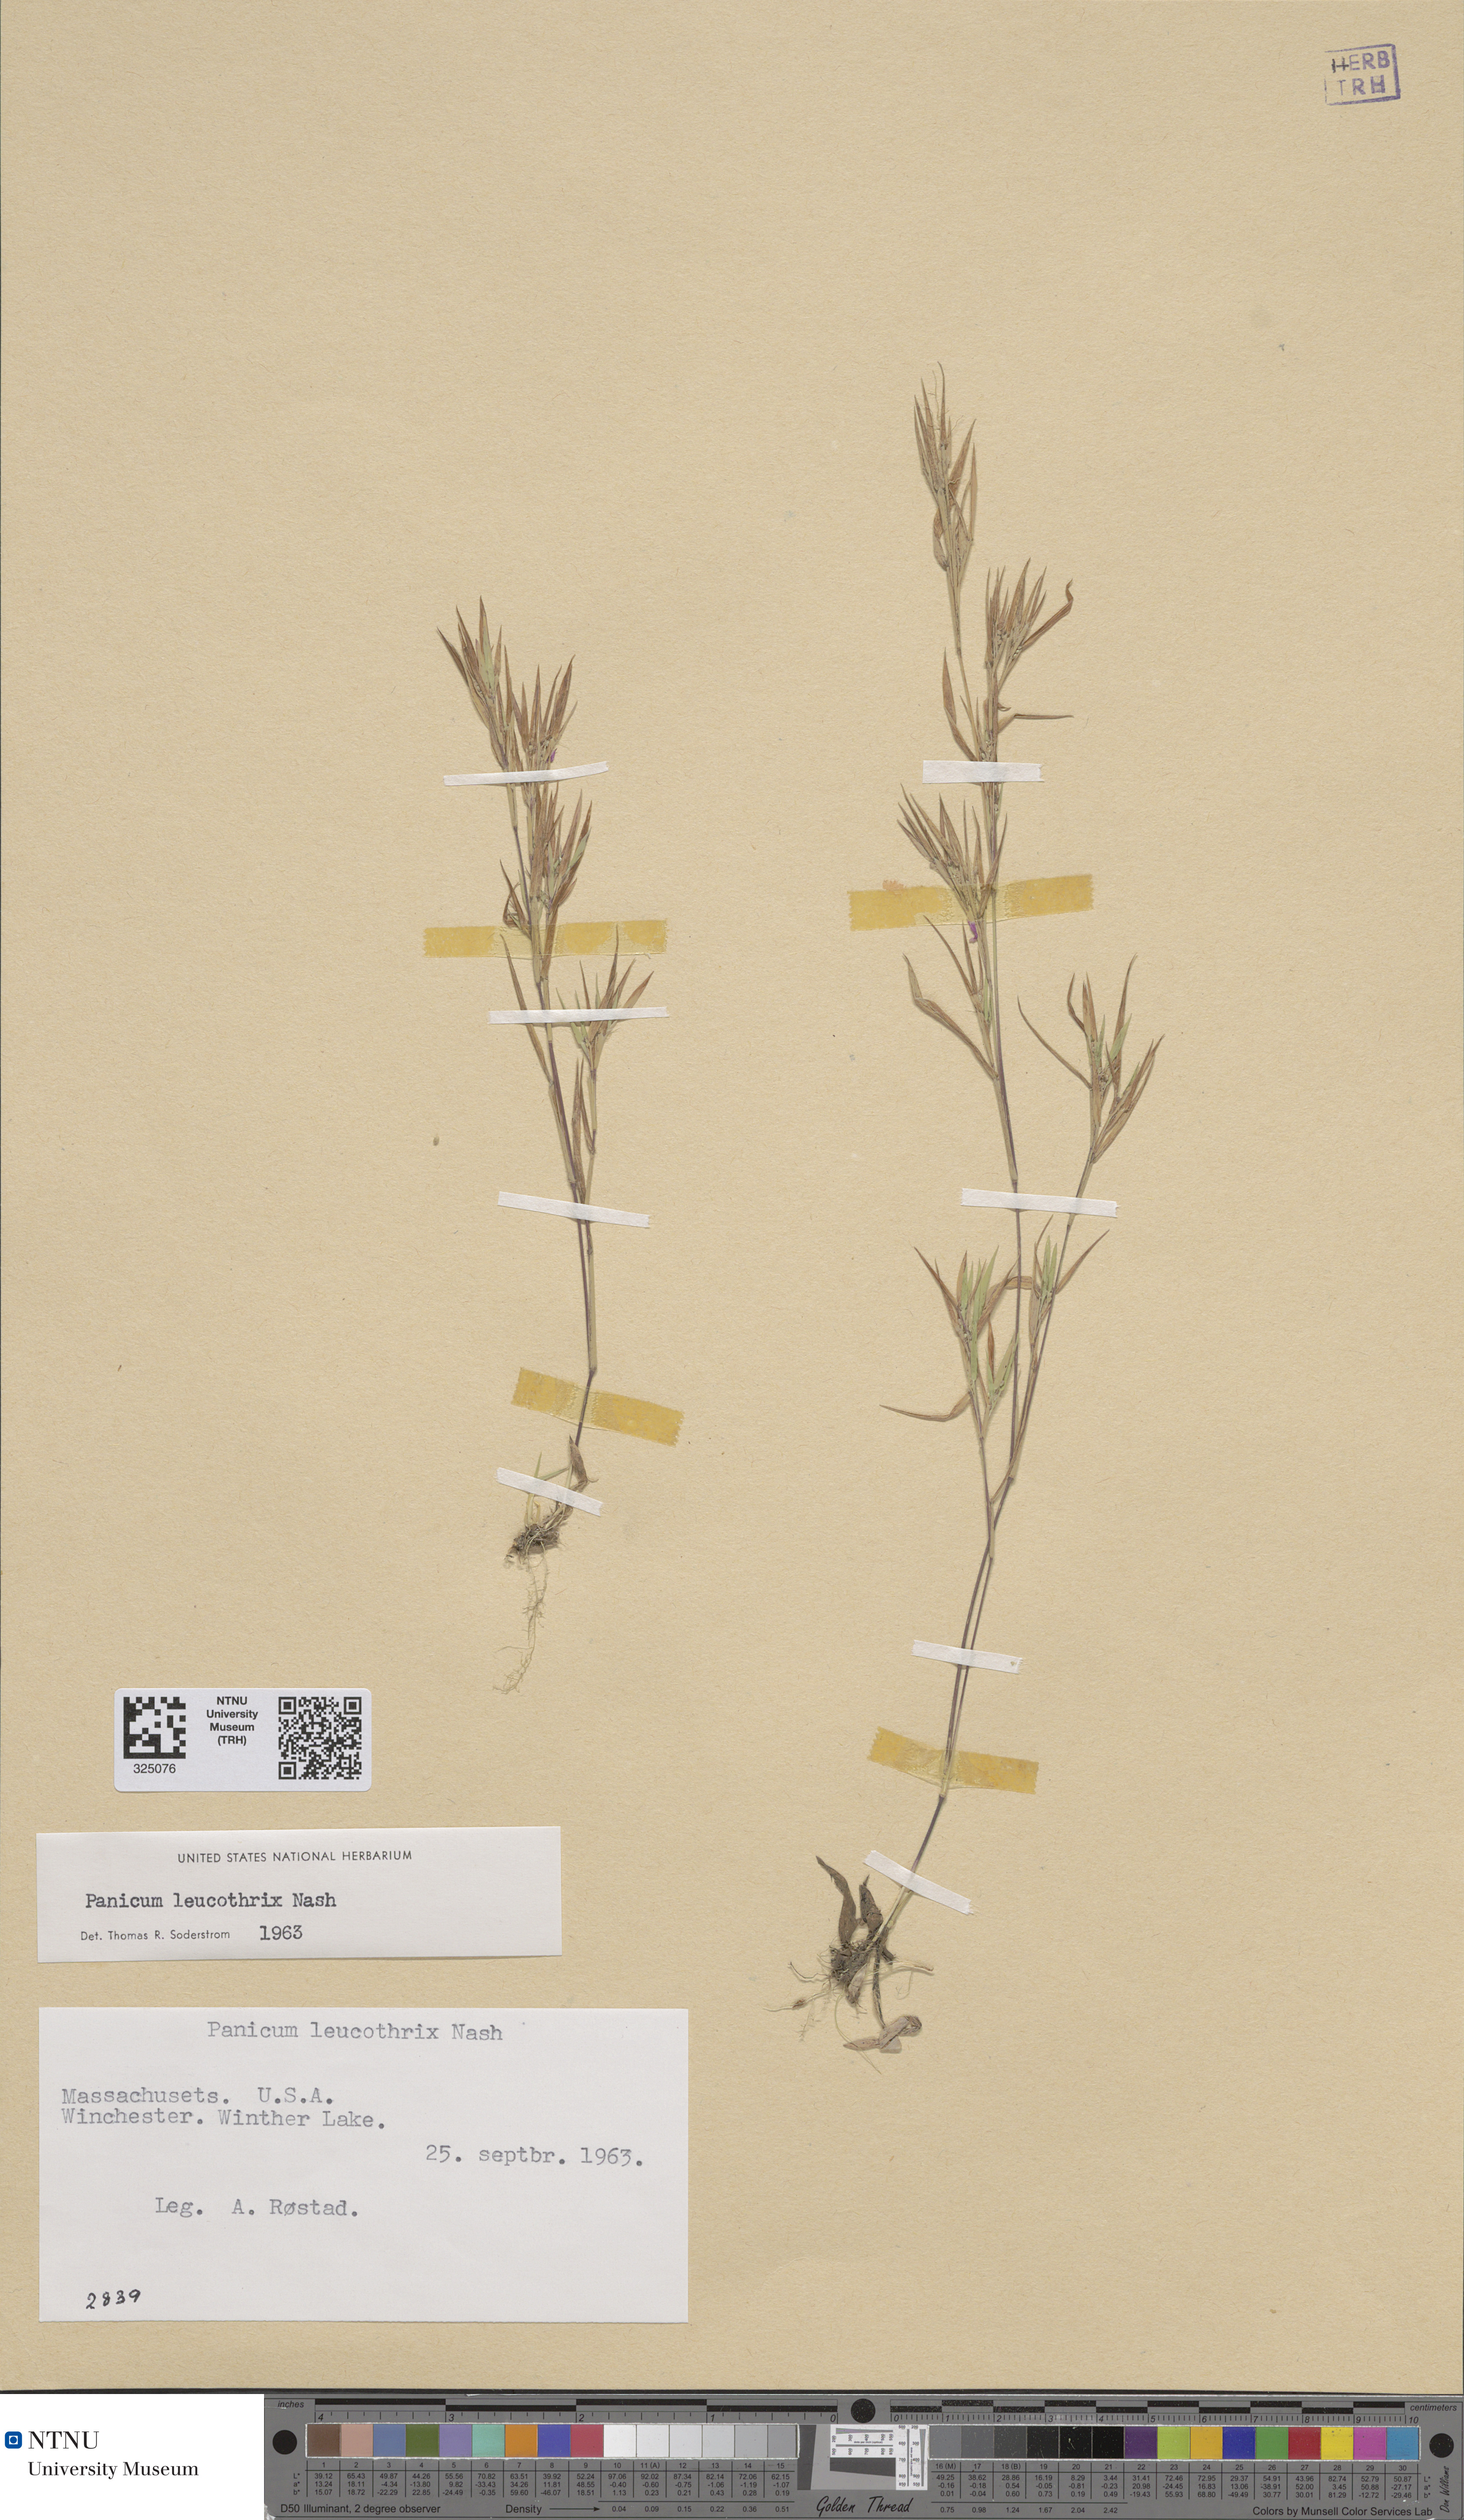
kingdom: Plantae
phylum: Tracheophyta
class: Liliopsida
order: Poales
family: Poaceae
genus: Dichanthelium
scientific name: Dichanthelium leucothrix
